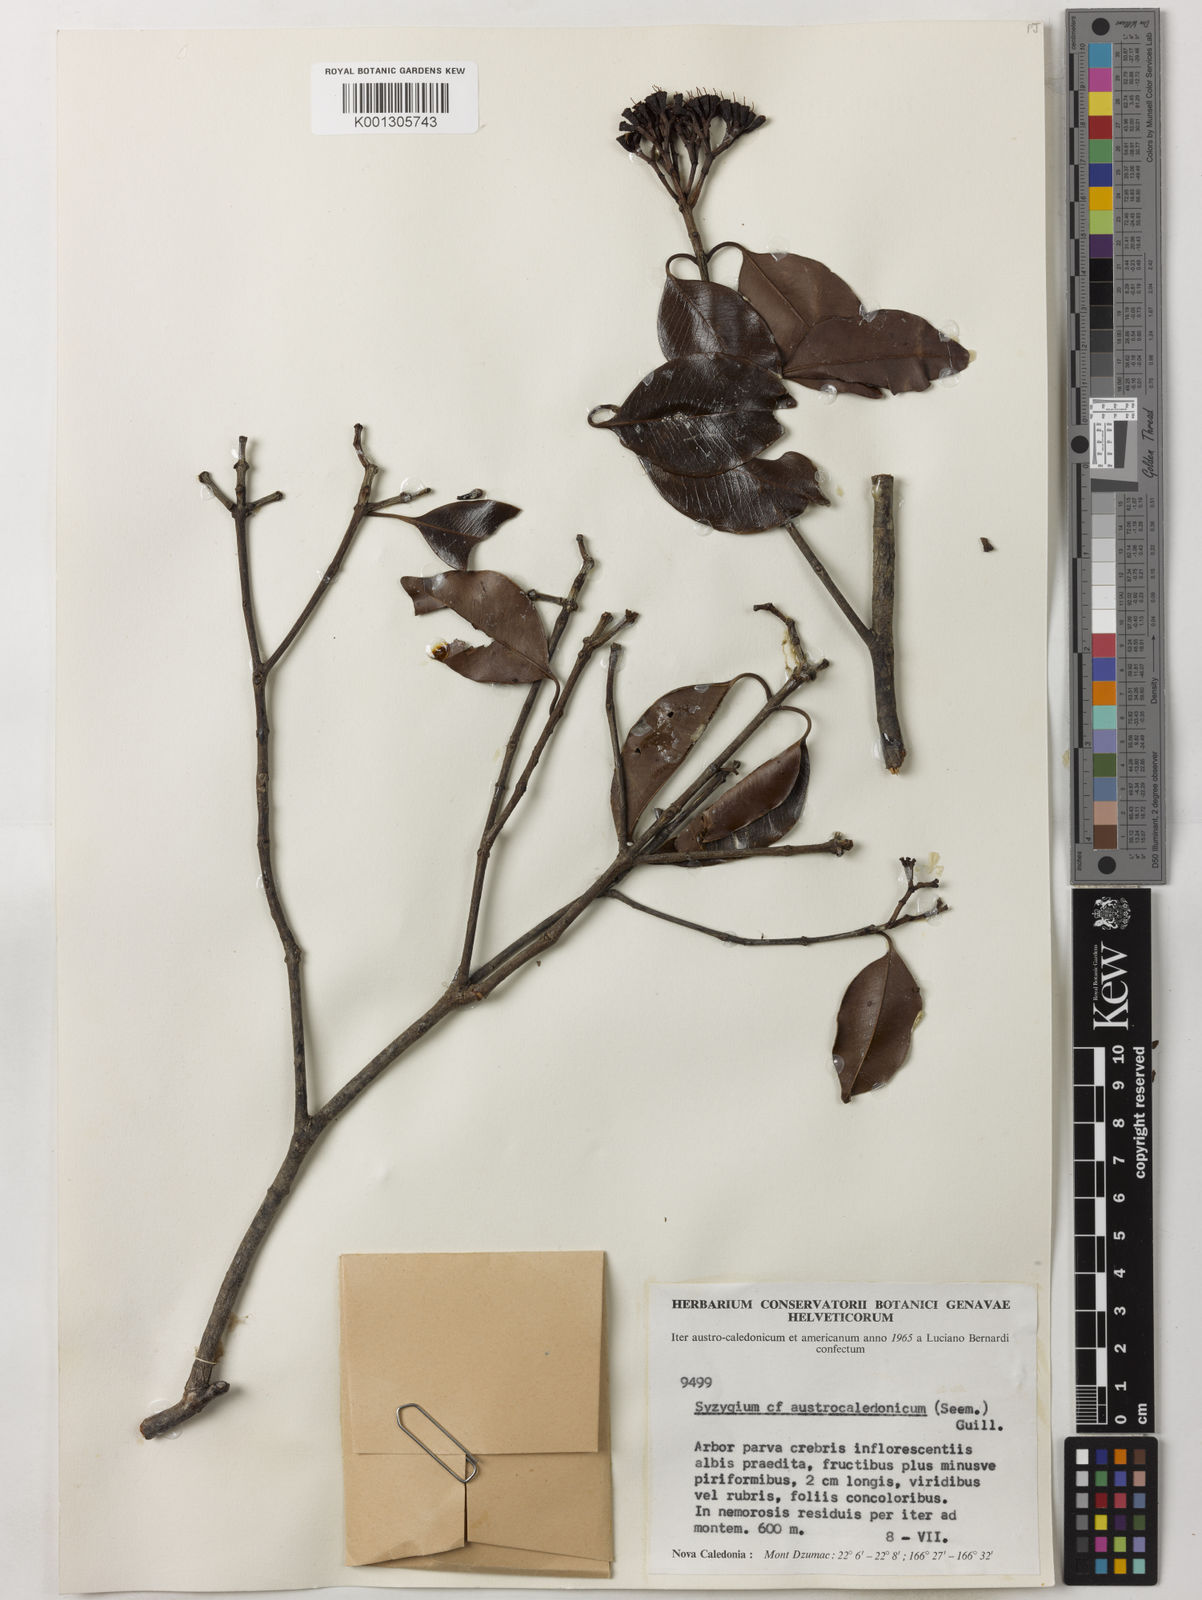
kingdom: Plantae
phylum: Tracheophyta
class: Magnoliopsida
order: Myrtales
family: Myrtaceae
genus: Syzygium
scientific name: Syzygium austrocaledonicum
